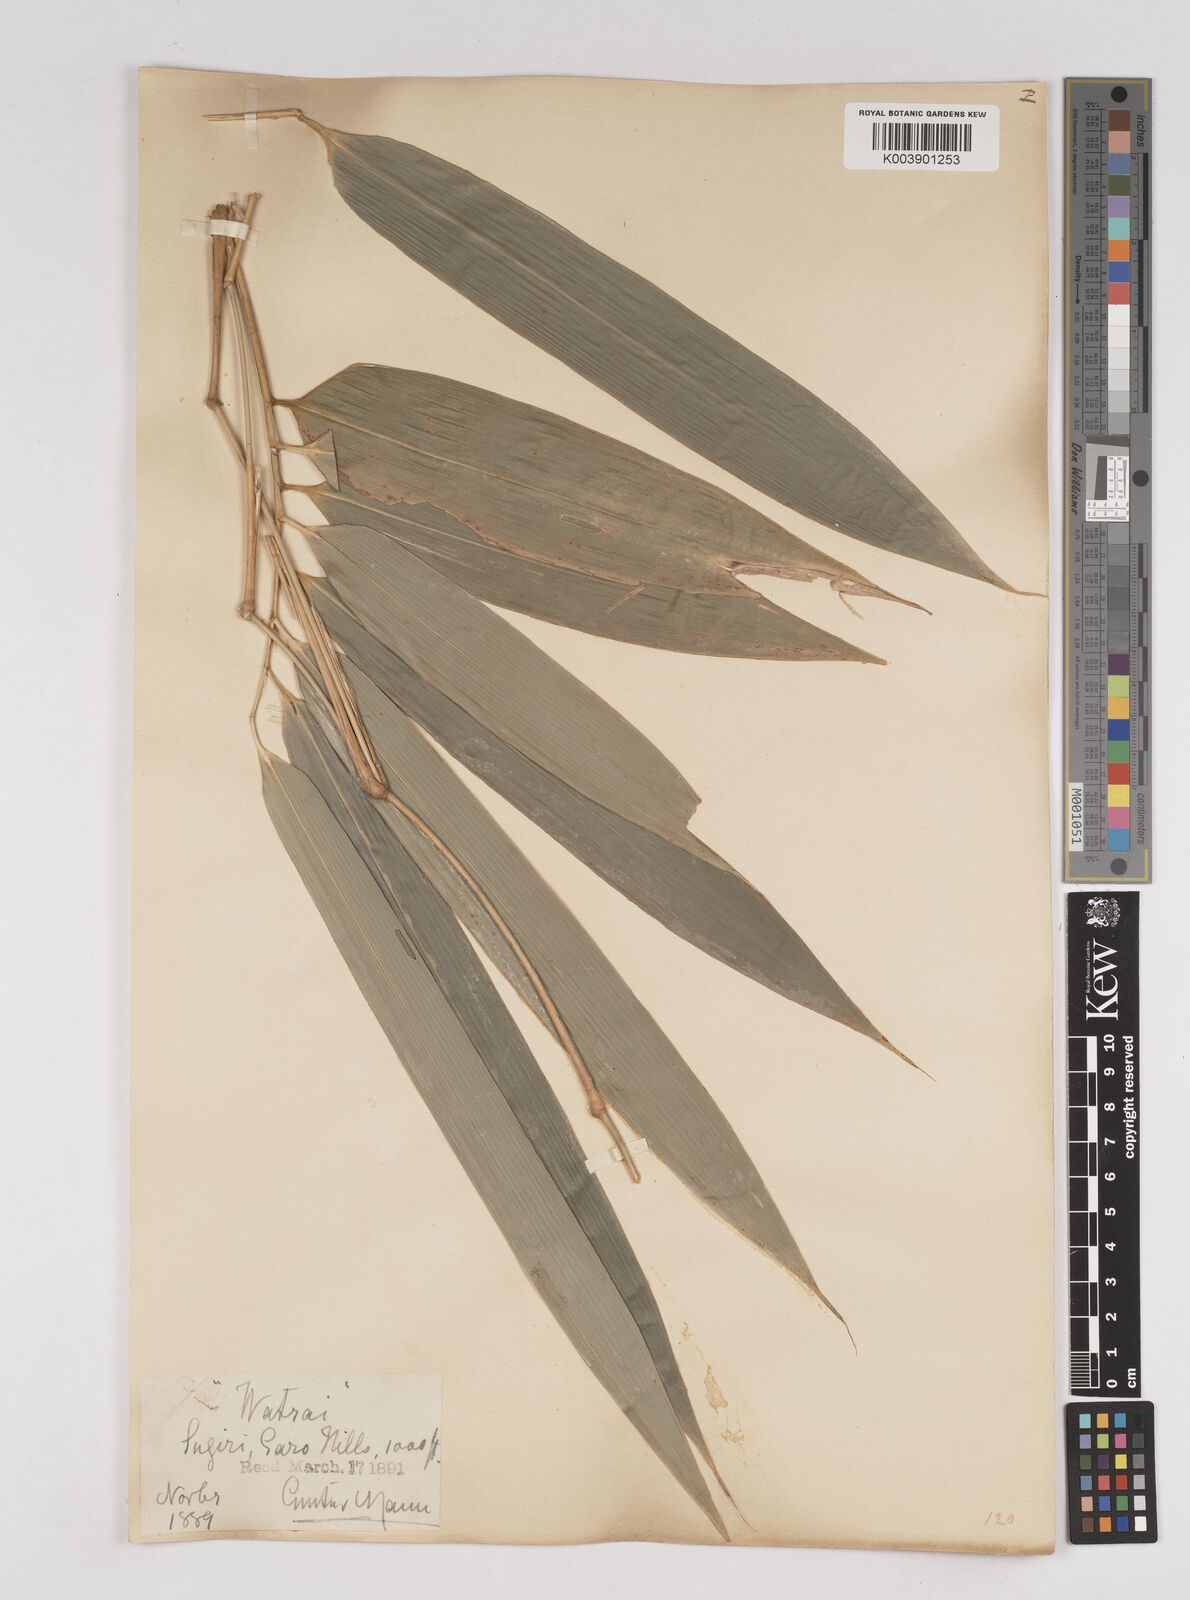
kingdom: Plantae
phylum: Tracheophyta
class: Liliopsida
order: Poales
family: Poaceae
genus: Melocanna
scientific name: Melocanna baccifera
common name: Berry bamboo
